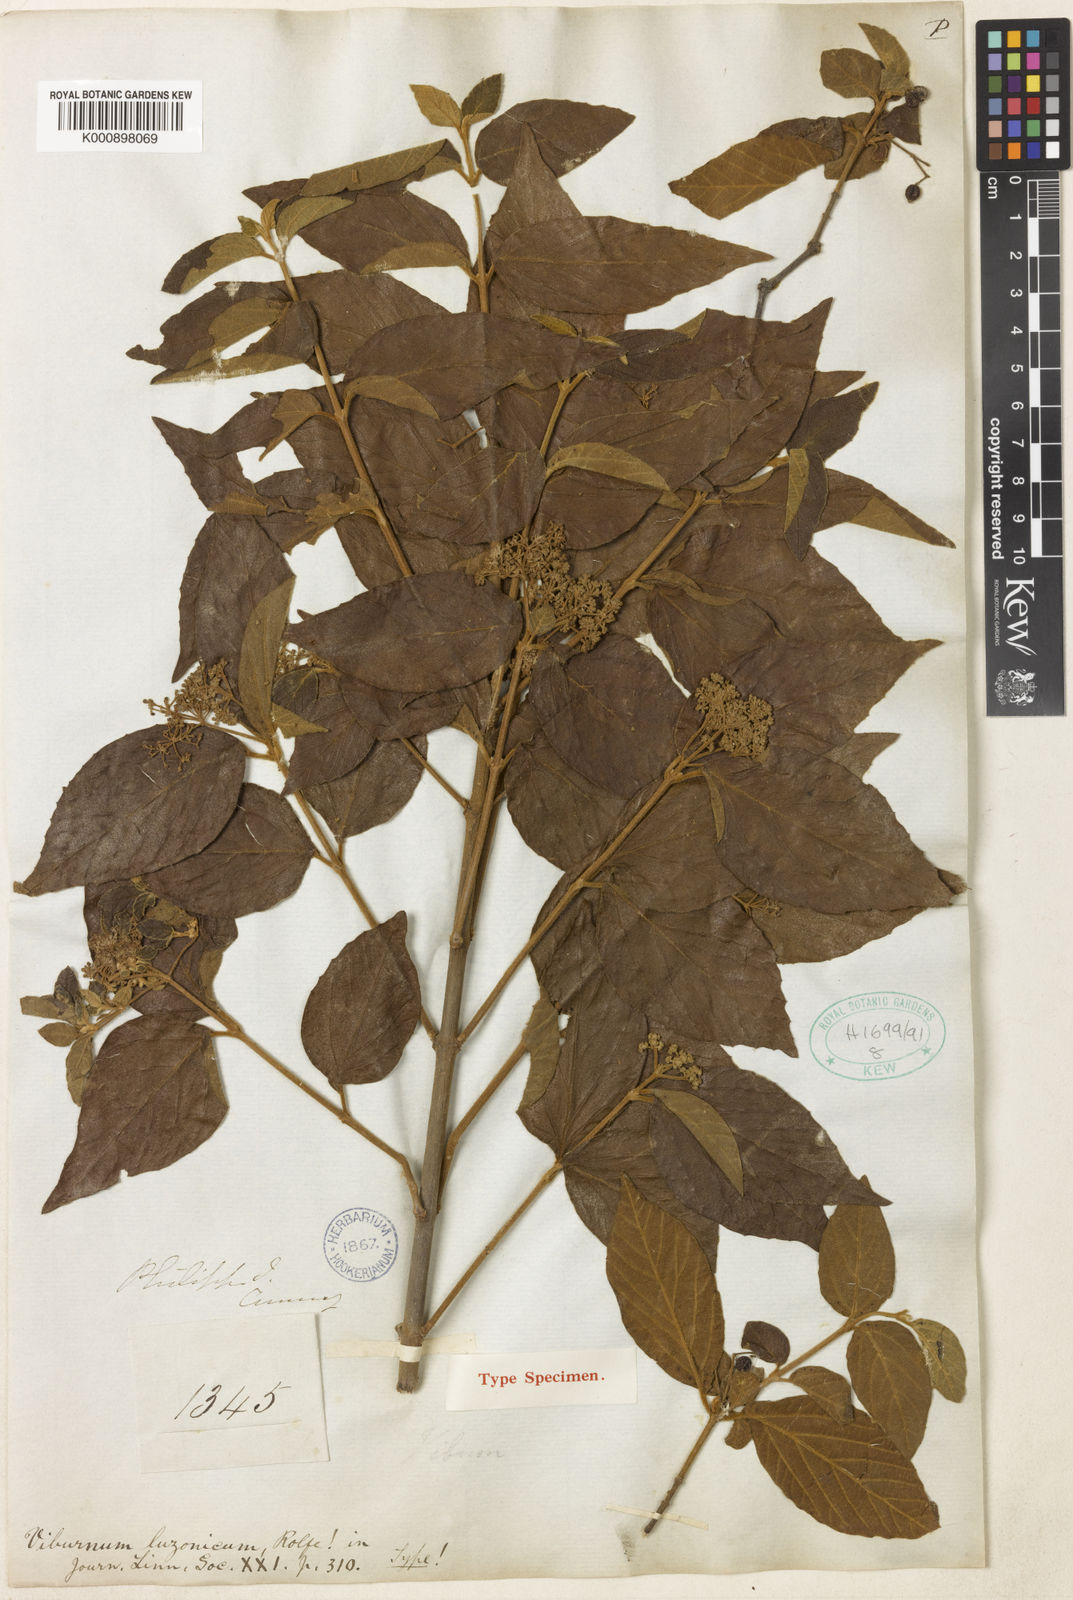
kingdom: Plantae
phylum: Tracheophyta
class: Magnoliopsida
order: Dipsacales
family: Viburnaceae
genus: Viburnum
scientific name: Viburnum luzonicum
